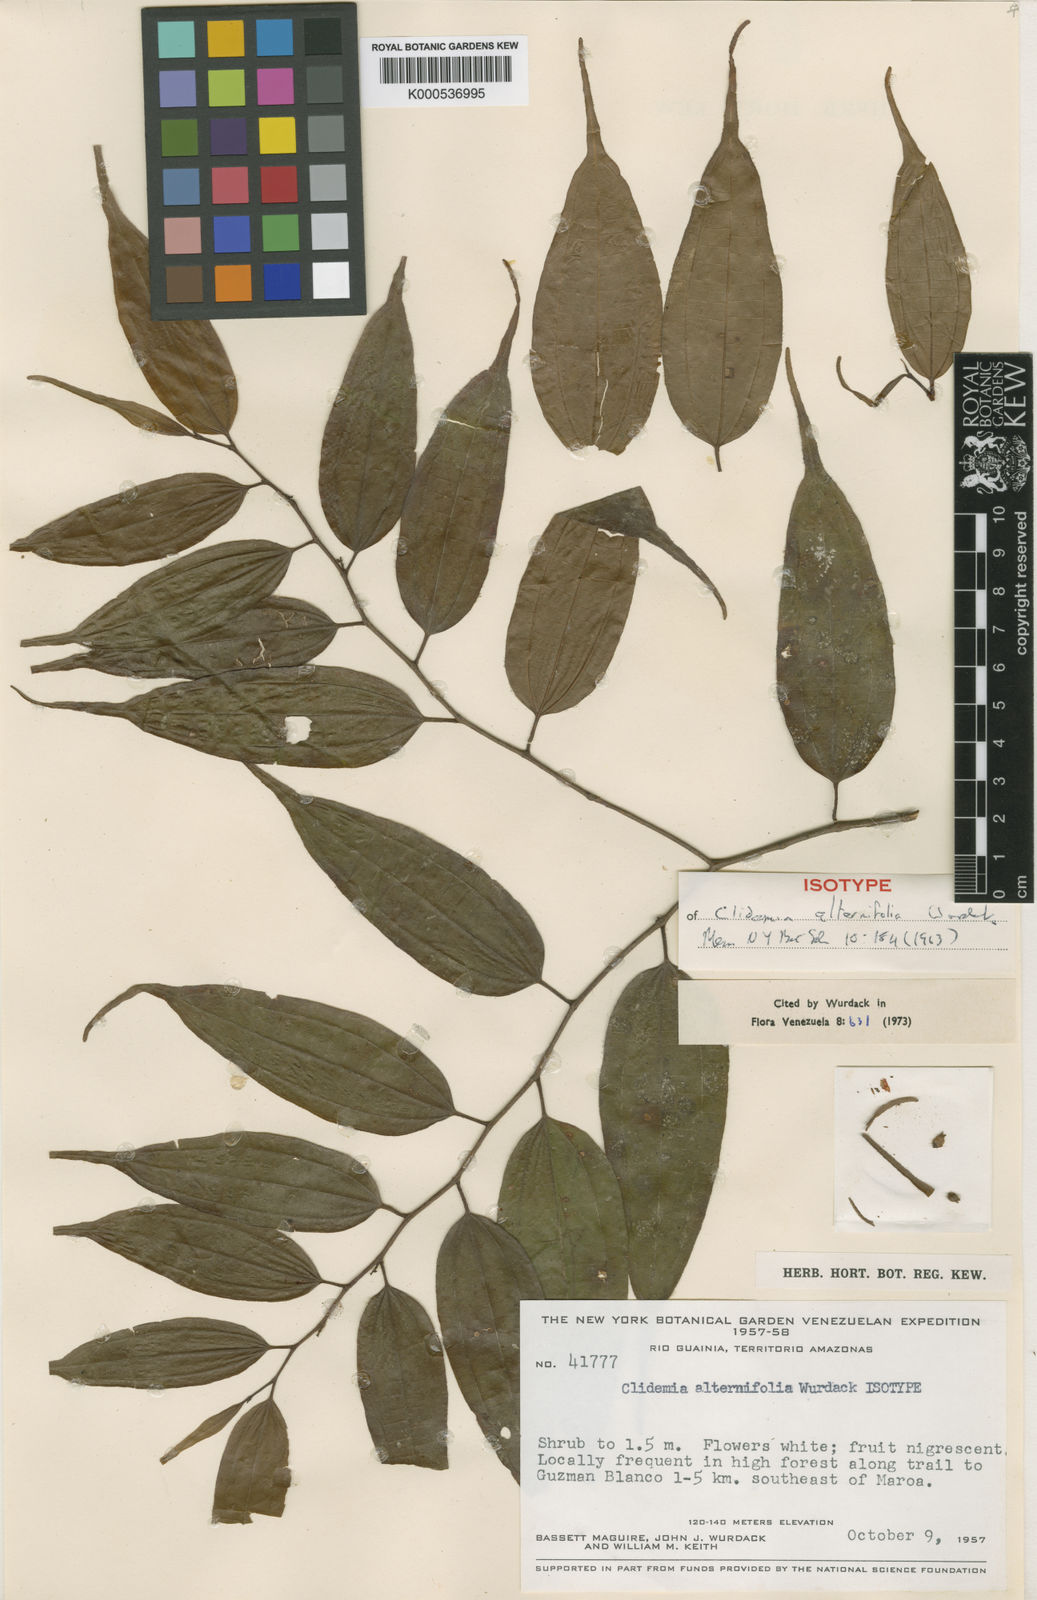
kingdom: Plantae
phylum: Tracheophyta
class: Magnoliopsida
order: Myrtales
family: Melastomataceae
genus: Miconia
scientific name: Miconia alternilamina
